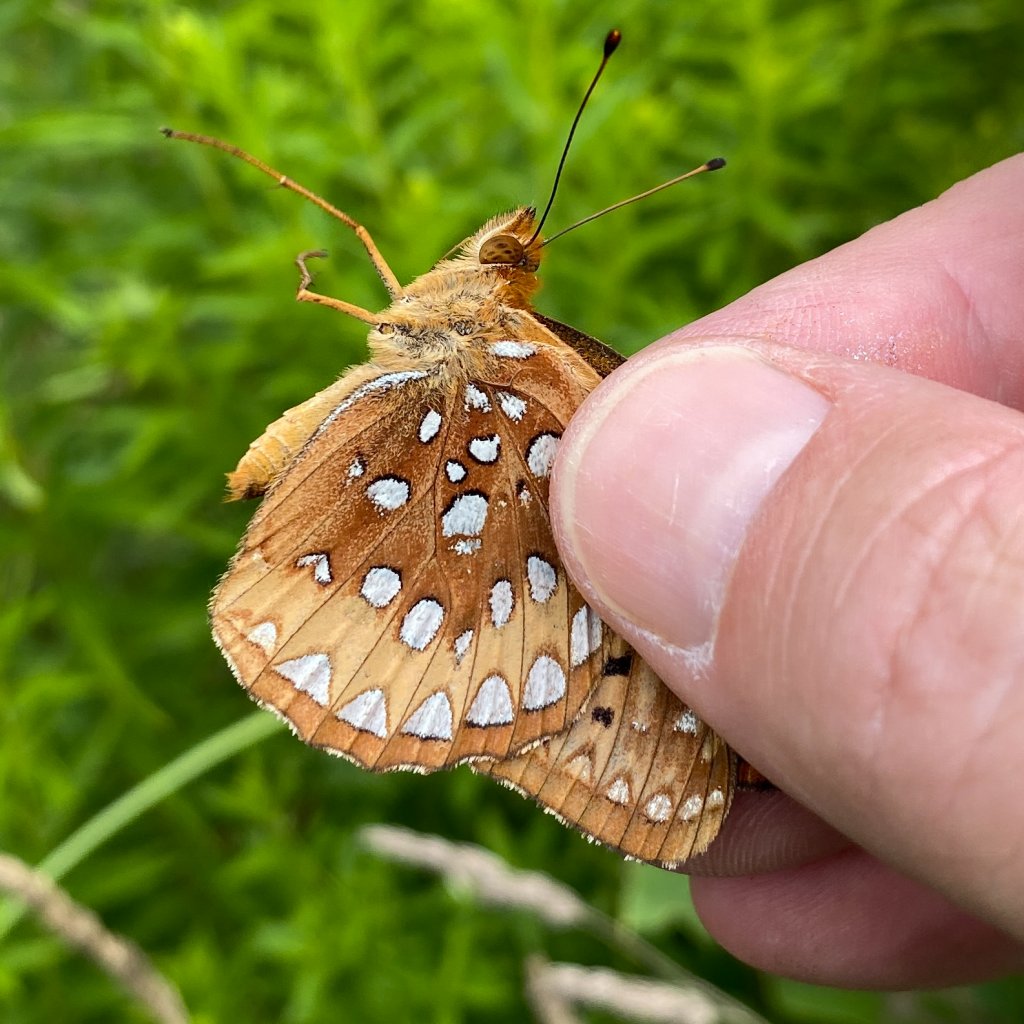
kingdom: Animalia
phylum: Arthropoda
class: Insecta
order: Lepidoptera
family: Nymphalidae
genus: Speyeria
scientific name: Speyeria cybele
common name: Great Spangled Fritillary
